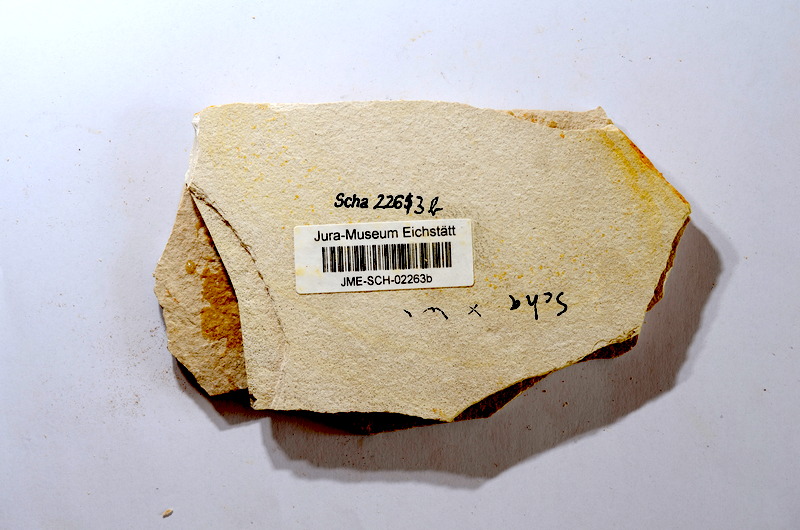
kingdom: Animalia
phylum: Chordata
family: Ascalaboidae
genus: Tharsis
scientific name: Tharsis dubius
